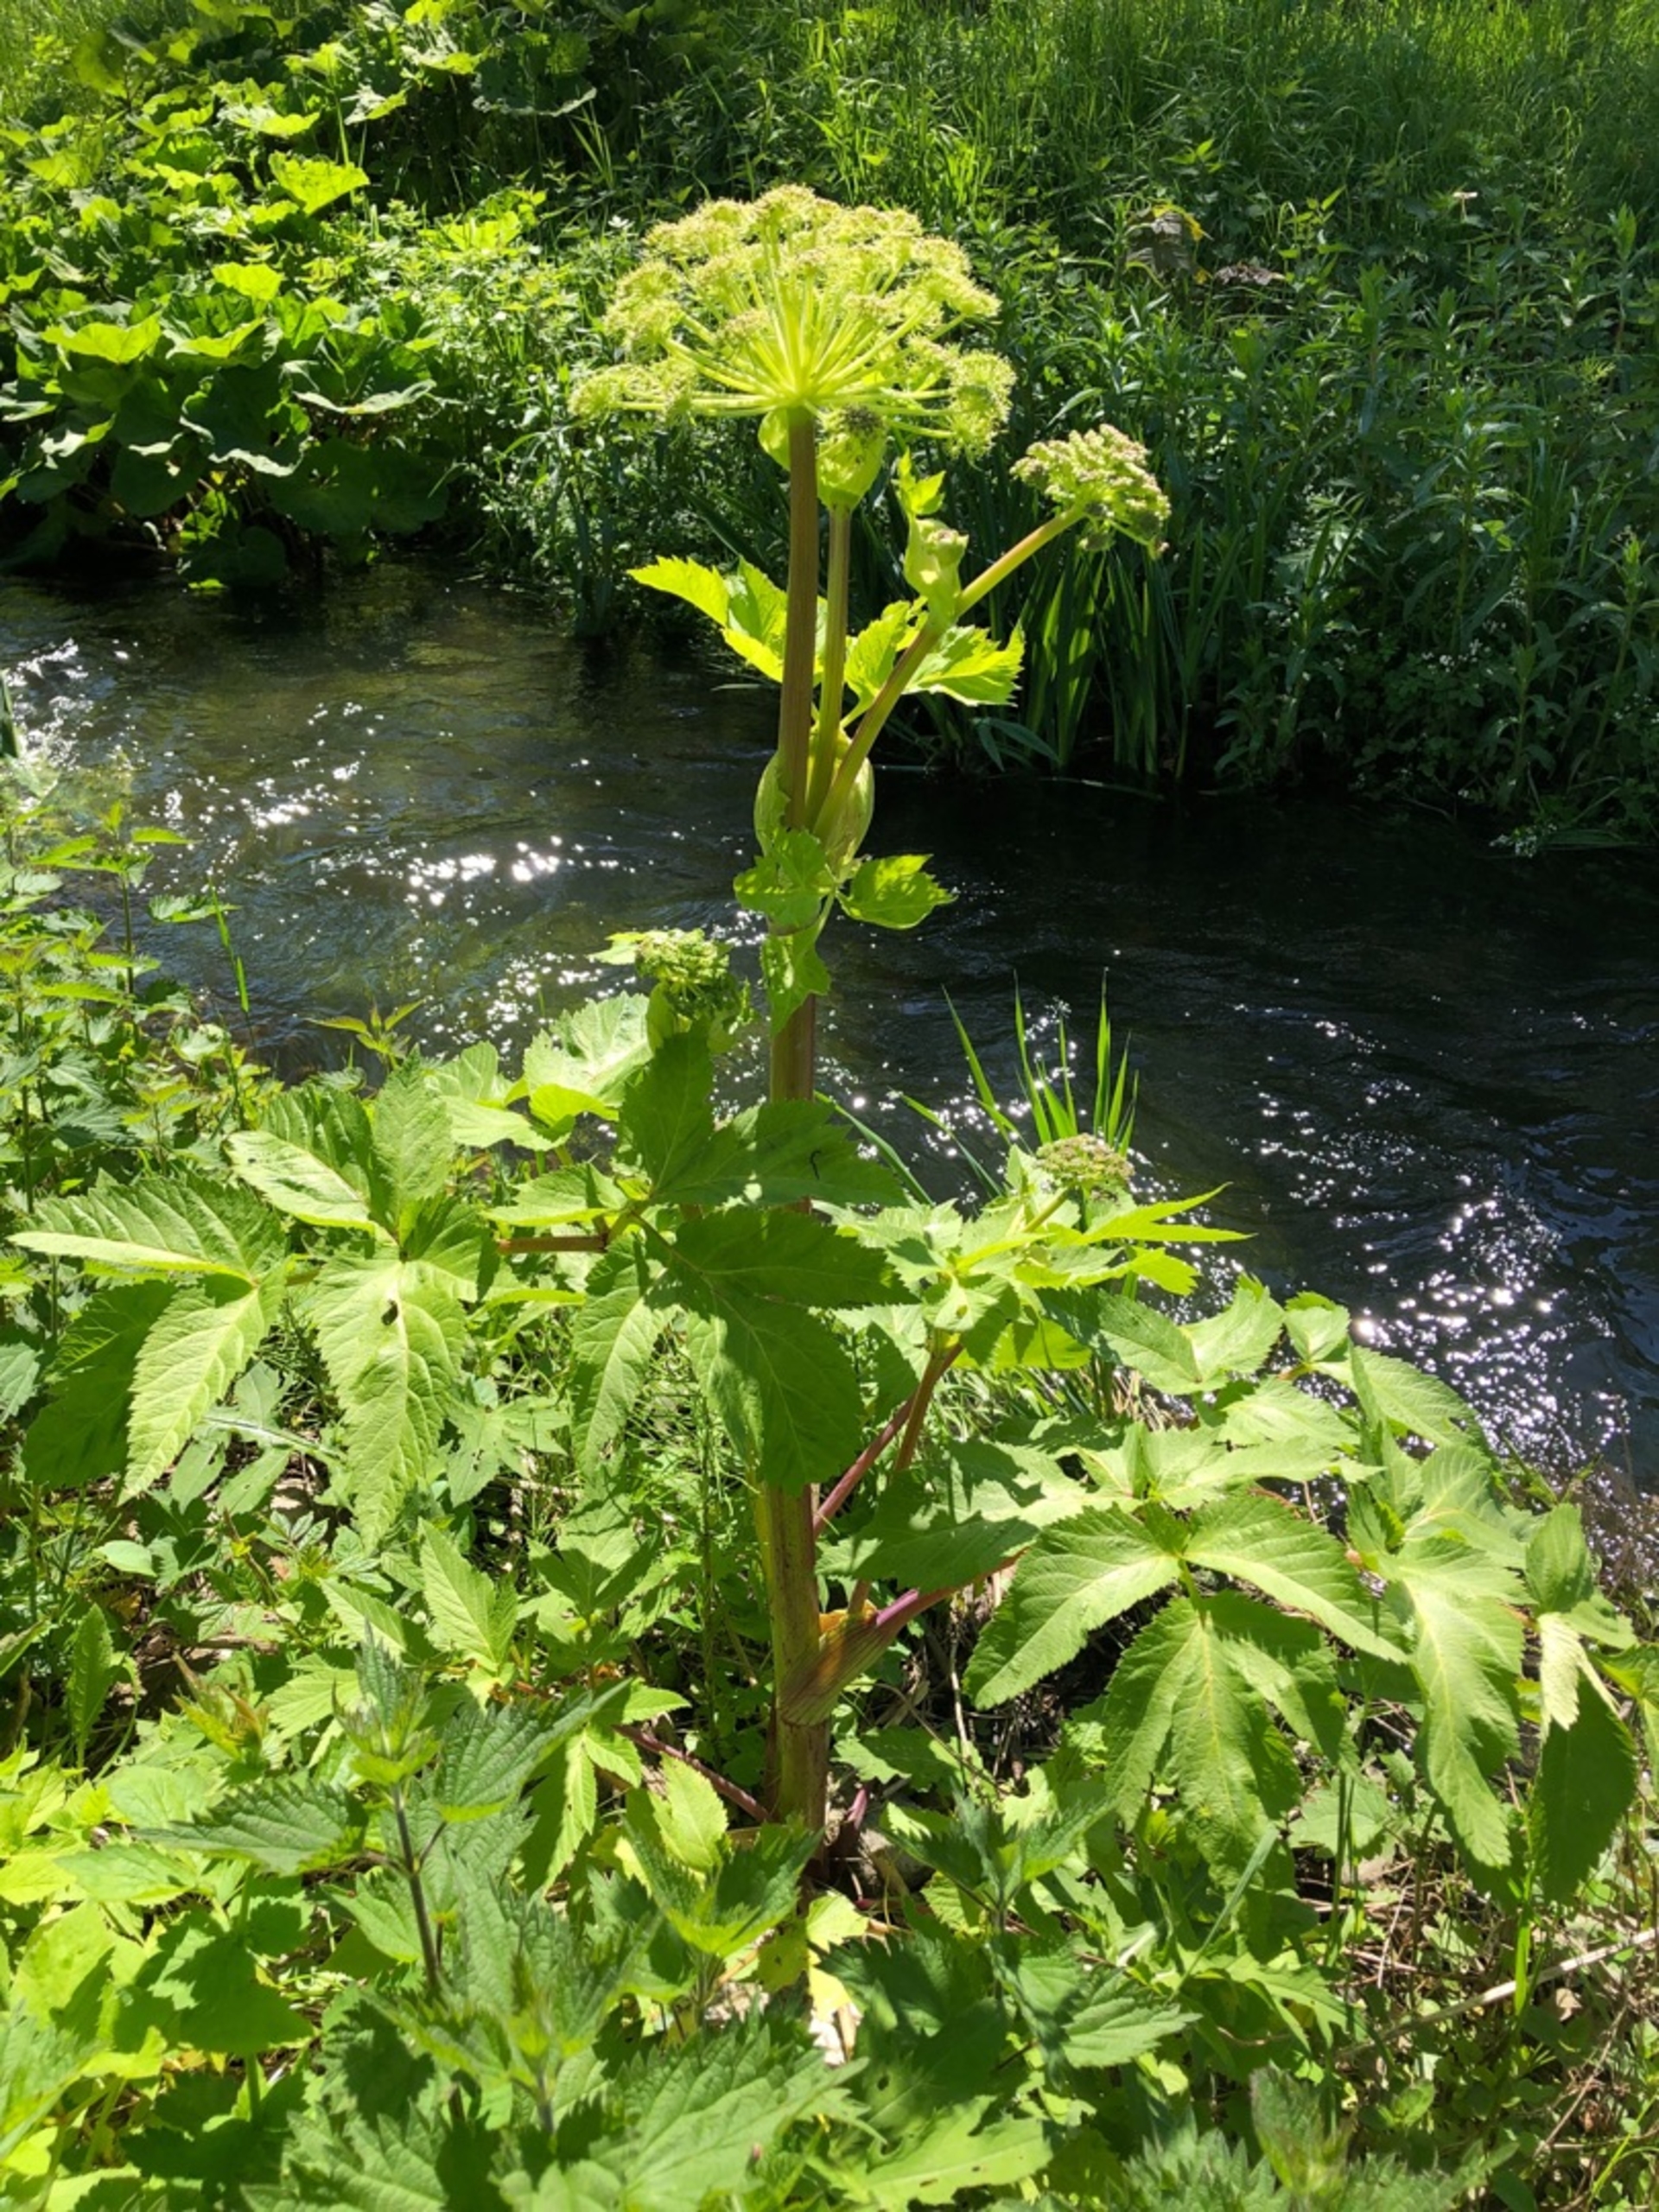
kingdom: Plantae
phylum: Tracheophyta
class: Magnoliopsida
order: Apiales
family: Apiaceae
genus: Angelica
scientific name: Angelica archangelica
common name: Kvan
